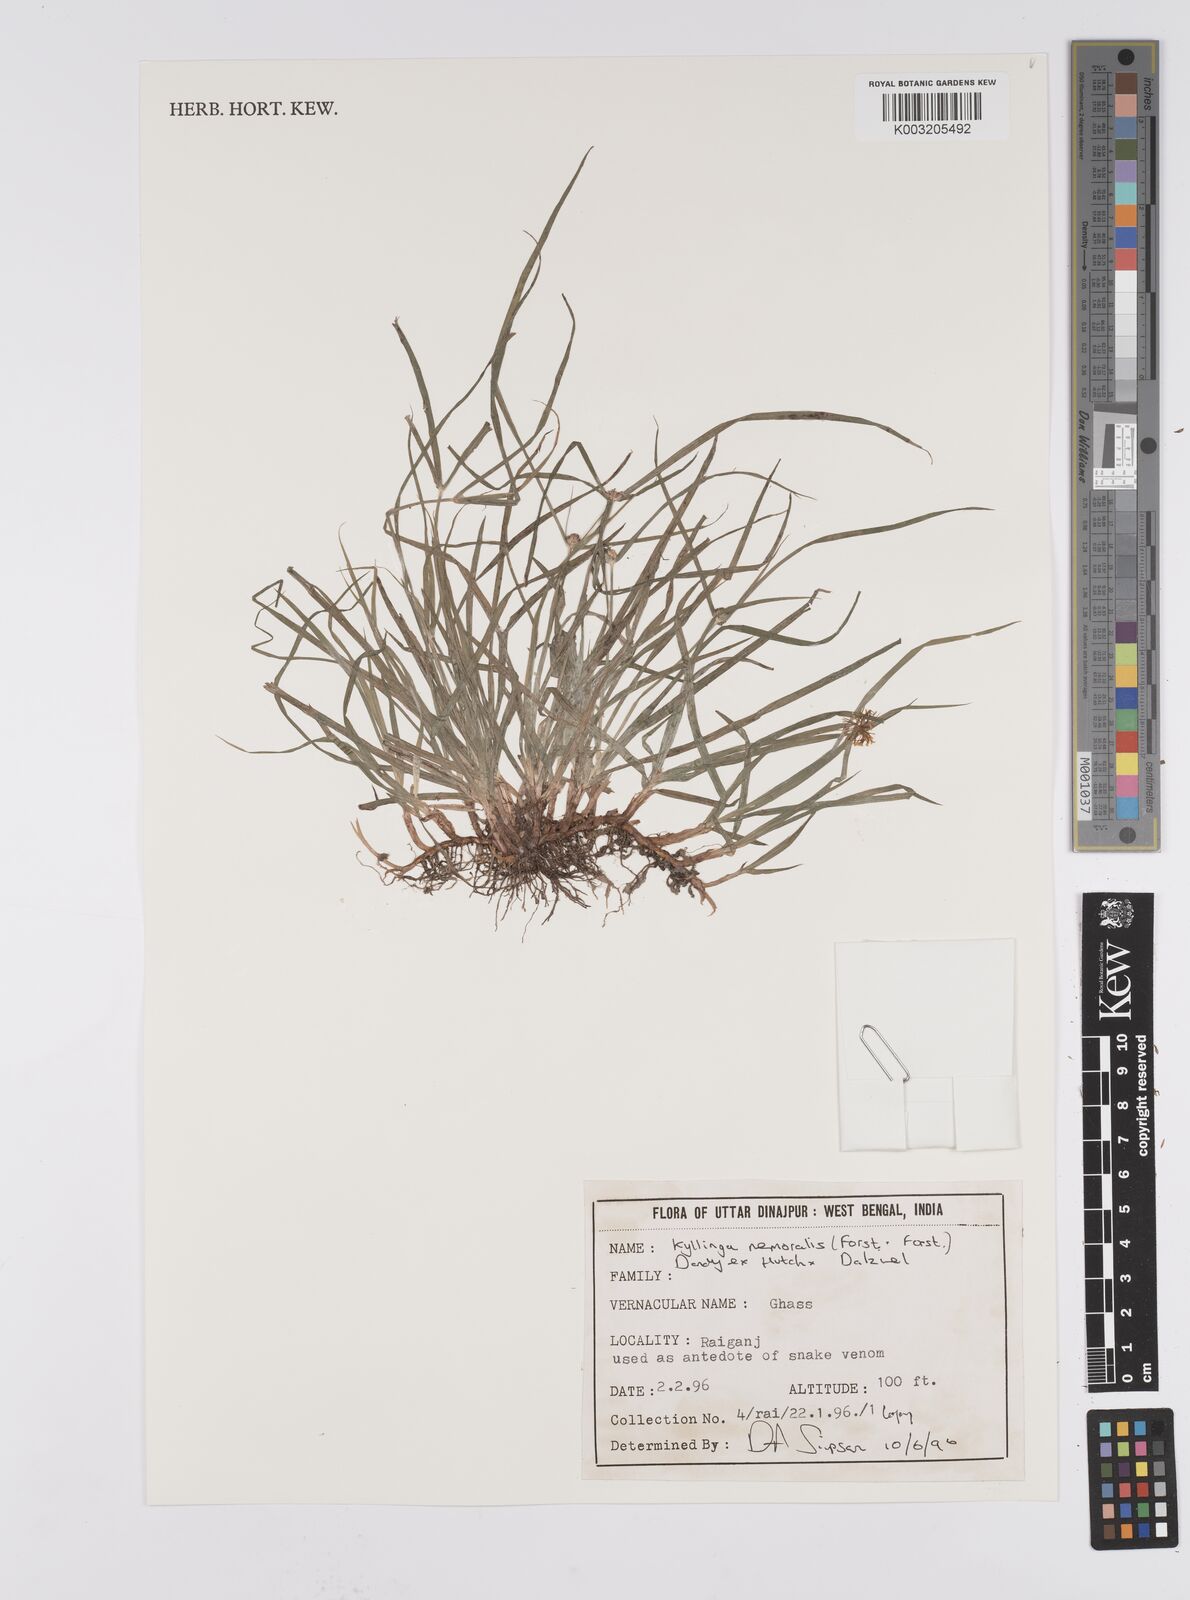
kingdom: Plantae
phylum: Tracheophyta
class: Liliopsida
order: Poales
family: Cyperaceae
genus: Cyperus
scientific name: Cyperus nemoralis
